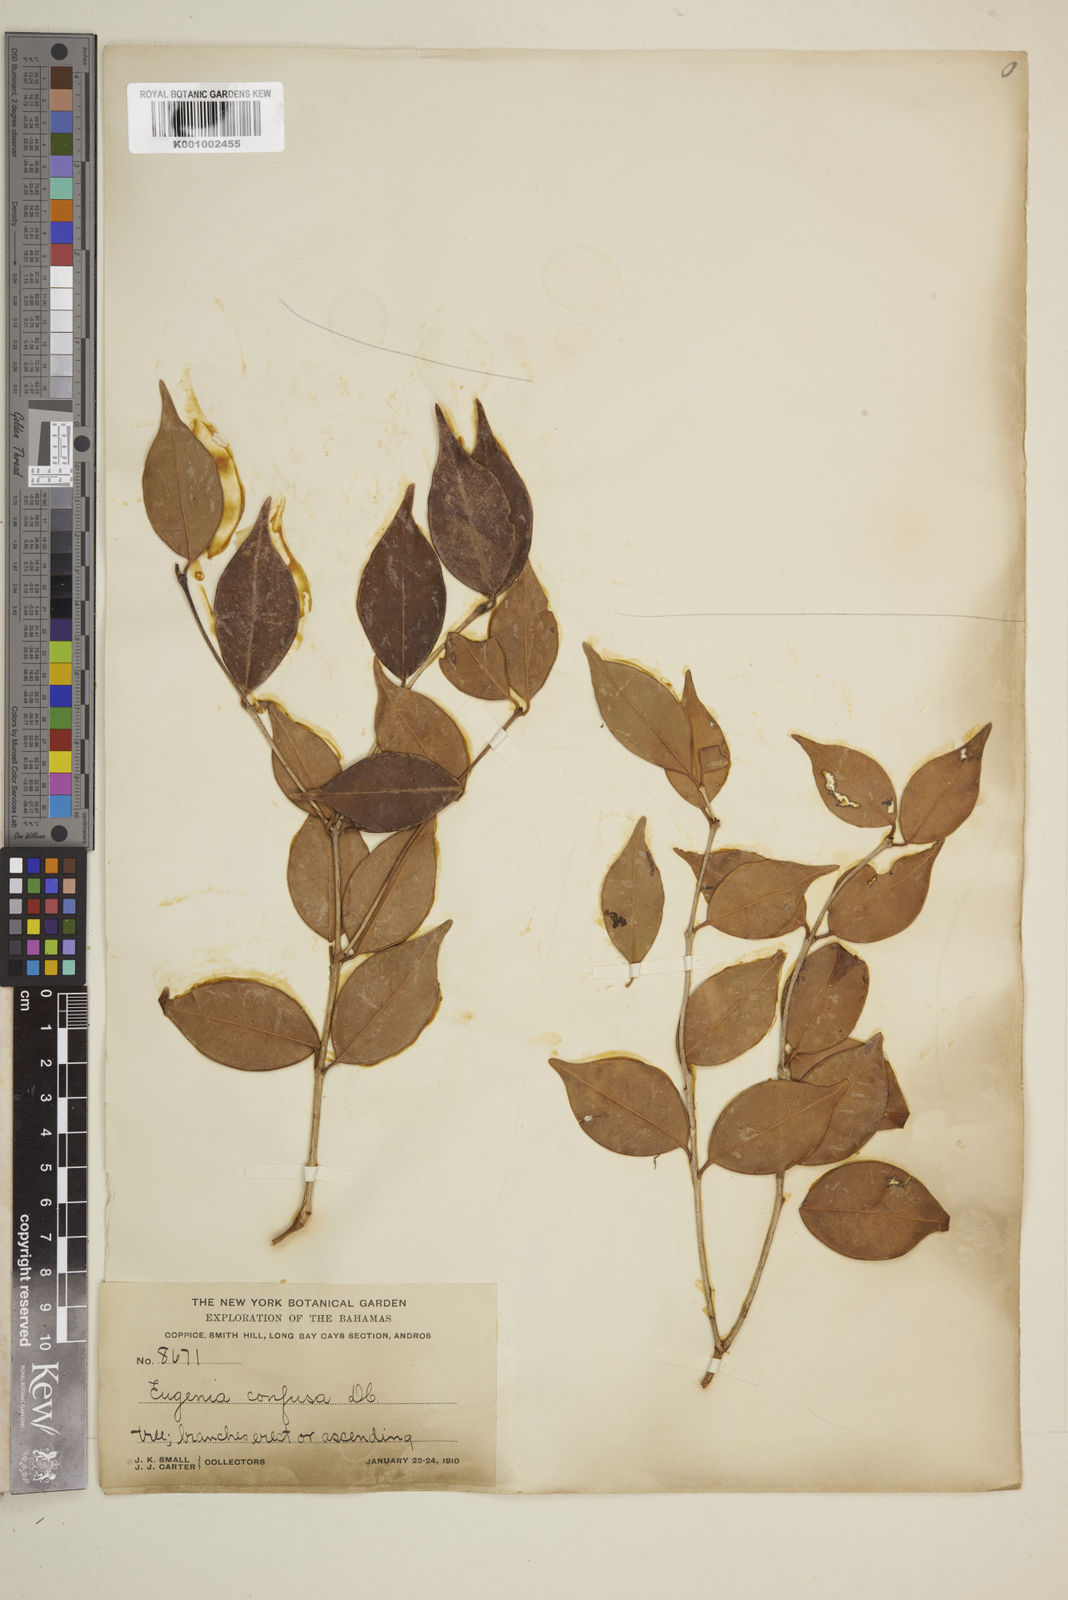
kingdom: Plantae
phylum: Tracheophyta
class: Magnoliopsida
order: Myrtales
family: Myrtaceae
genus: Eugenia
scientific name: Eugenia confusa
